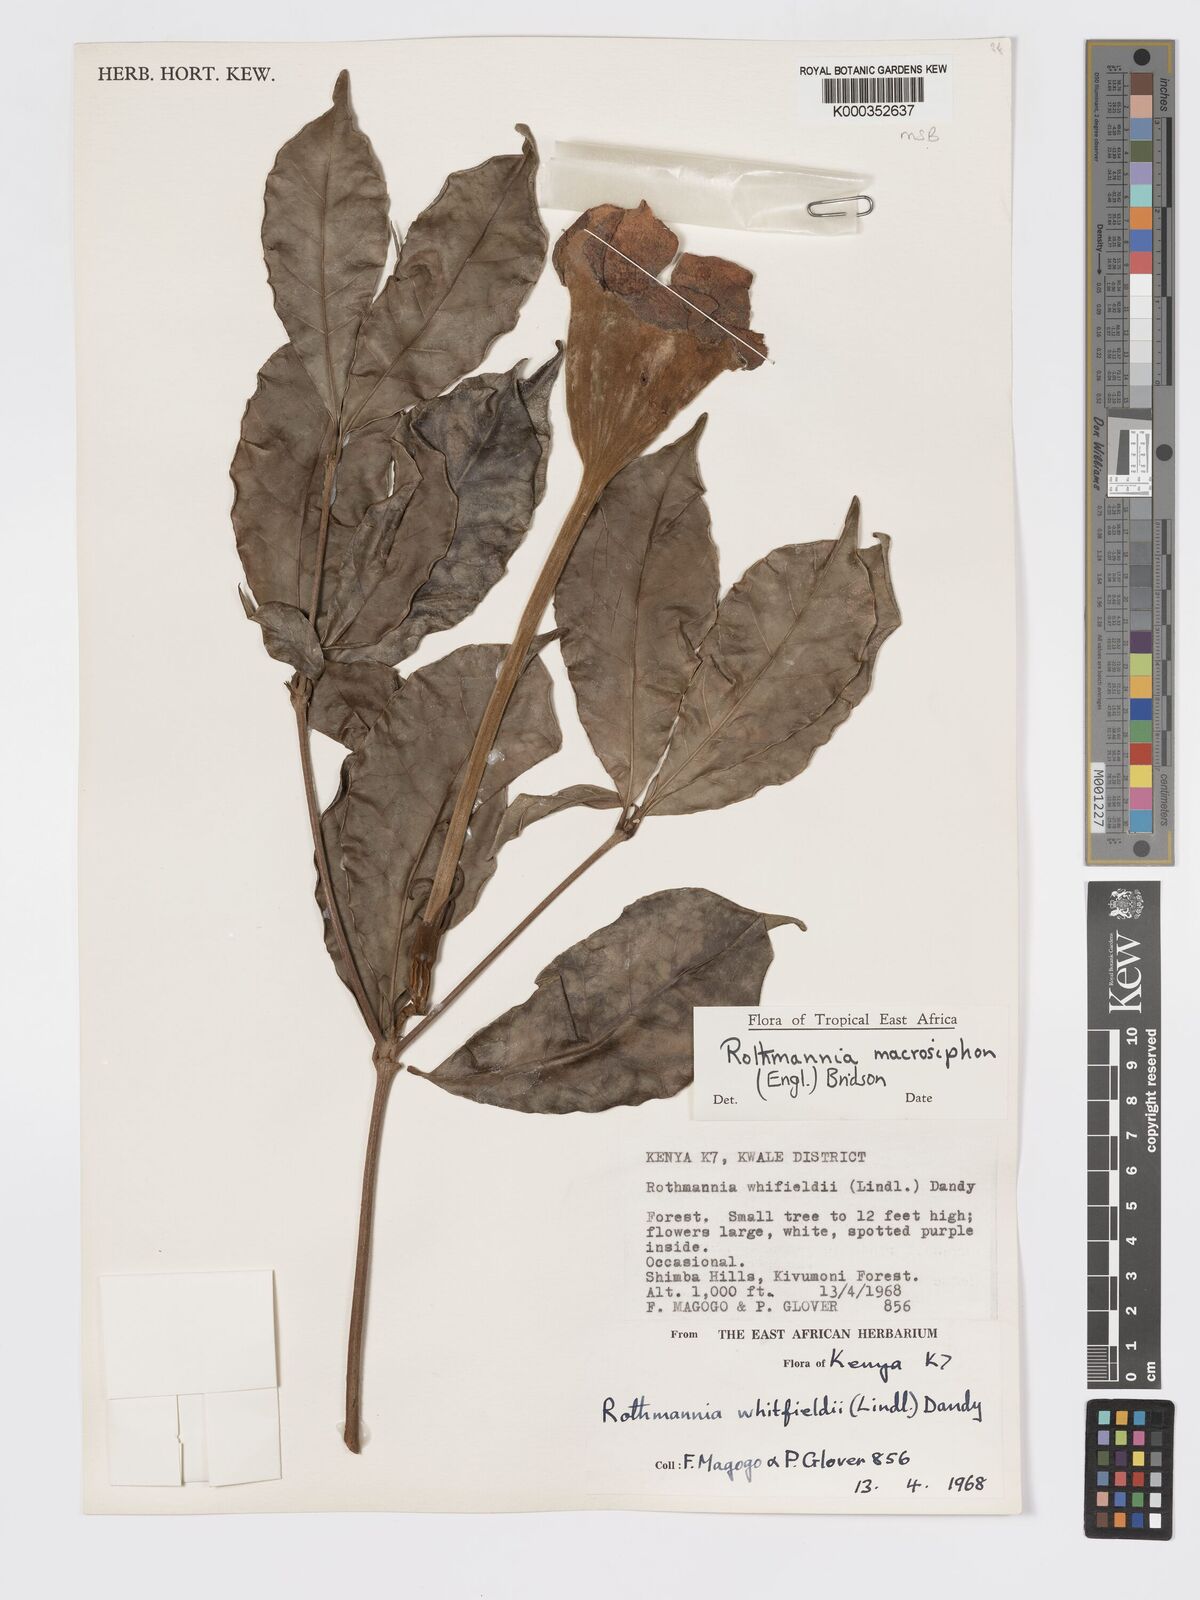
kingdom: Plantae
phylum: Tracheophyta
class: Magnoliopsida
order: Gentianales
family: Rubiaceae
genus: Rothmannia
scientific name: Rothmannia macrosiphon
